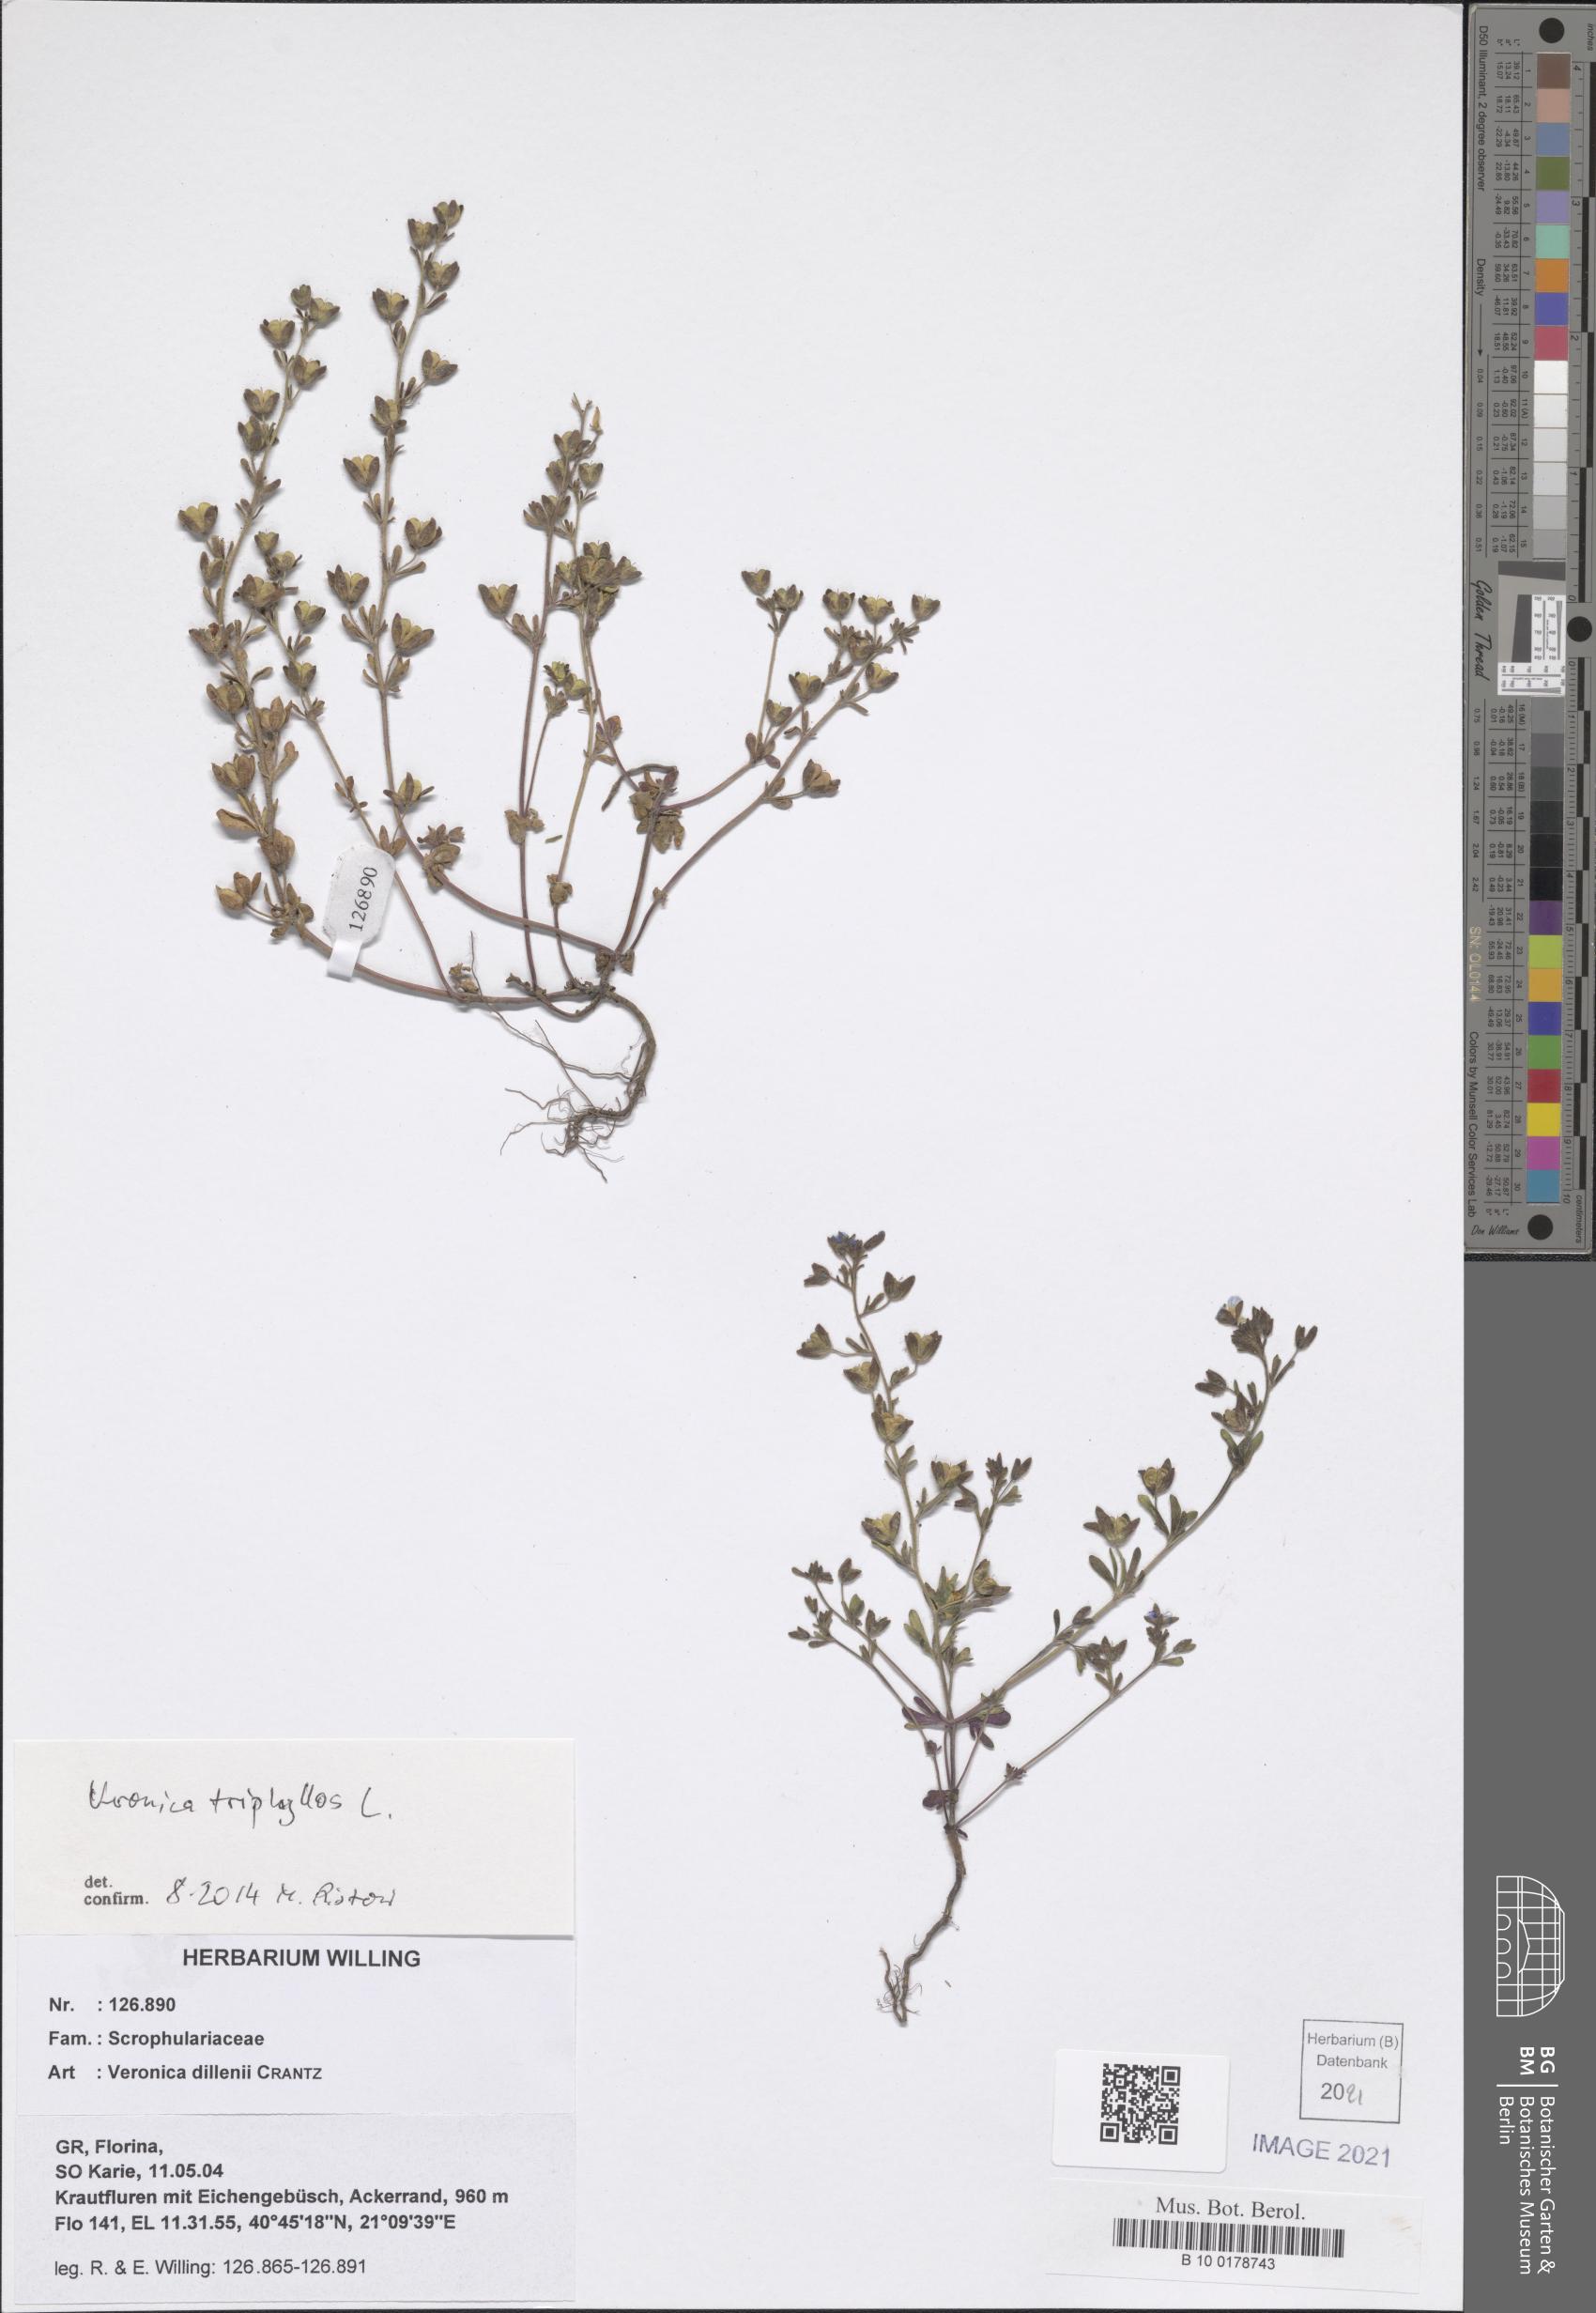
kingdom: Plantae
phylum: Tracheophyta
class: Magnoliopsida
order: Lamiales
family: Plantaginaceae
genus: Veronica
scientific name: Veronica dillenii
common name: Dillenius' speedwell
